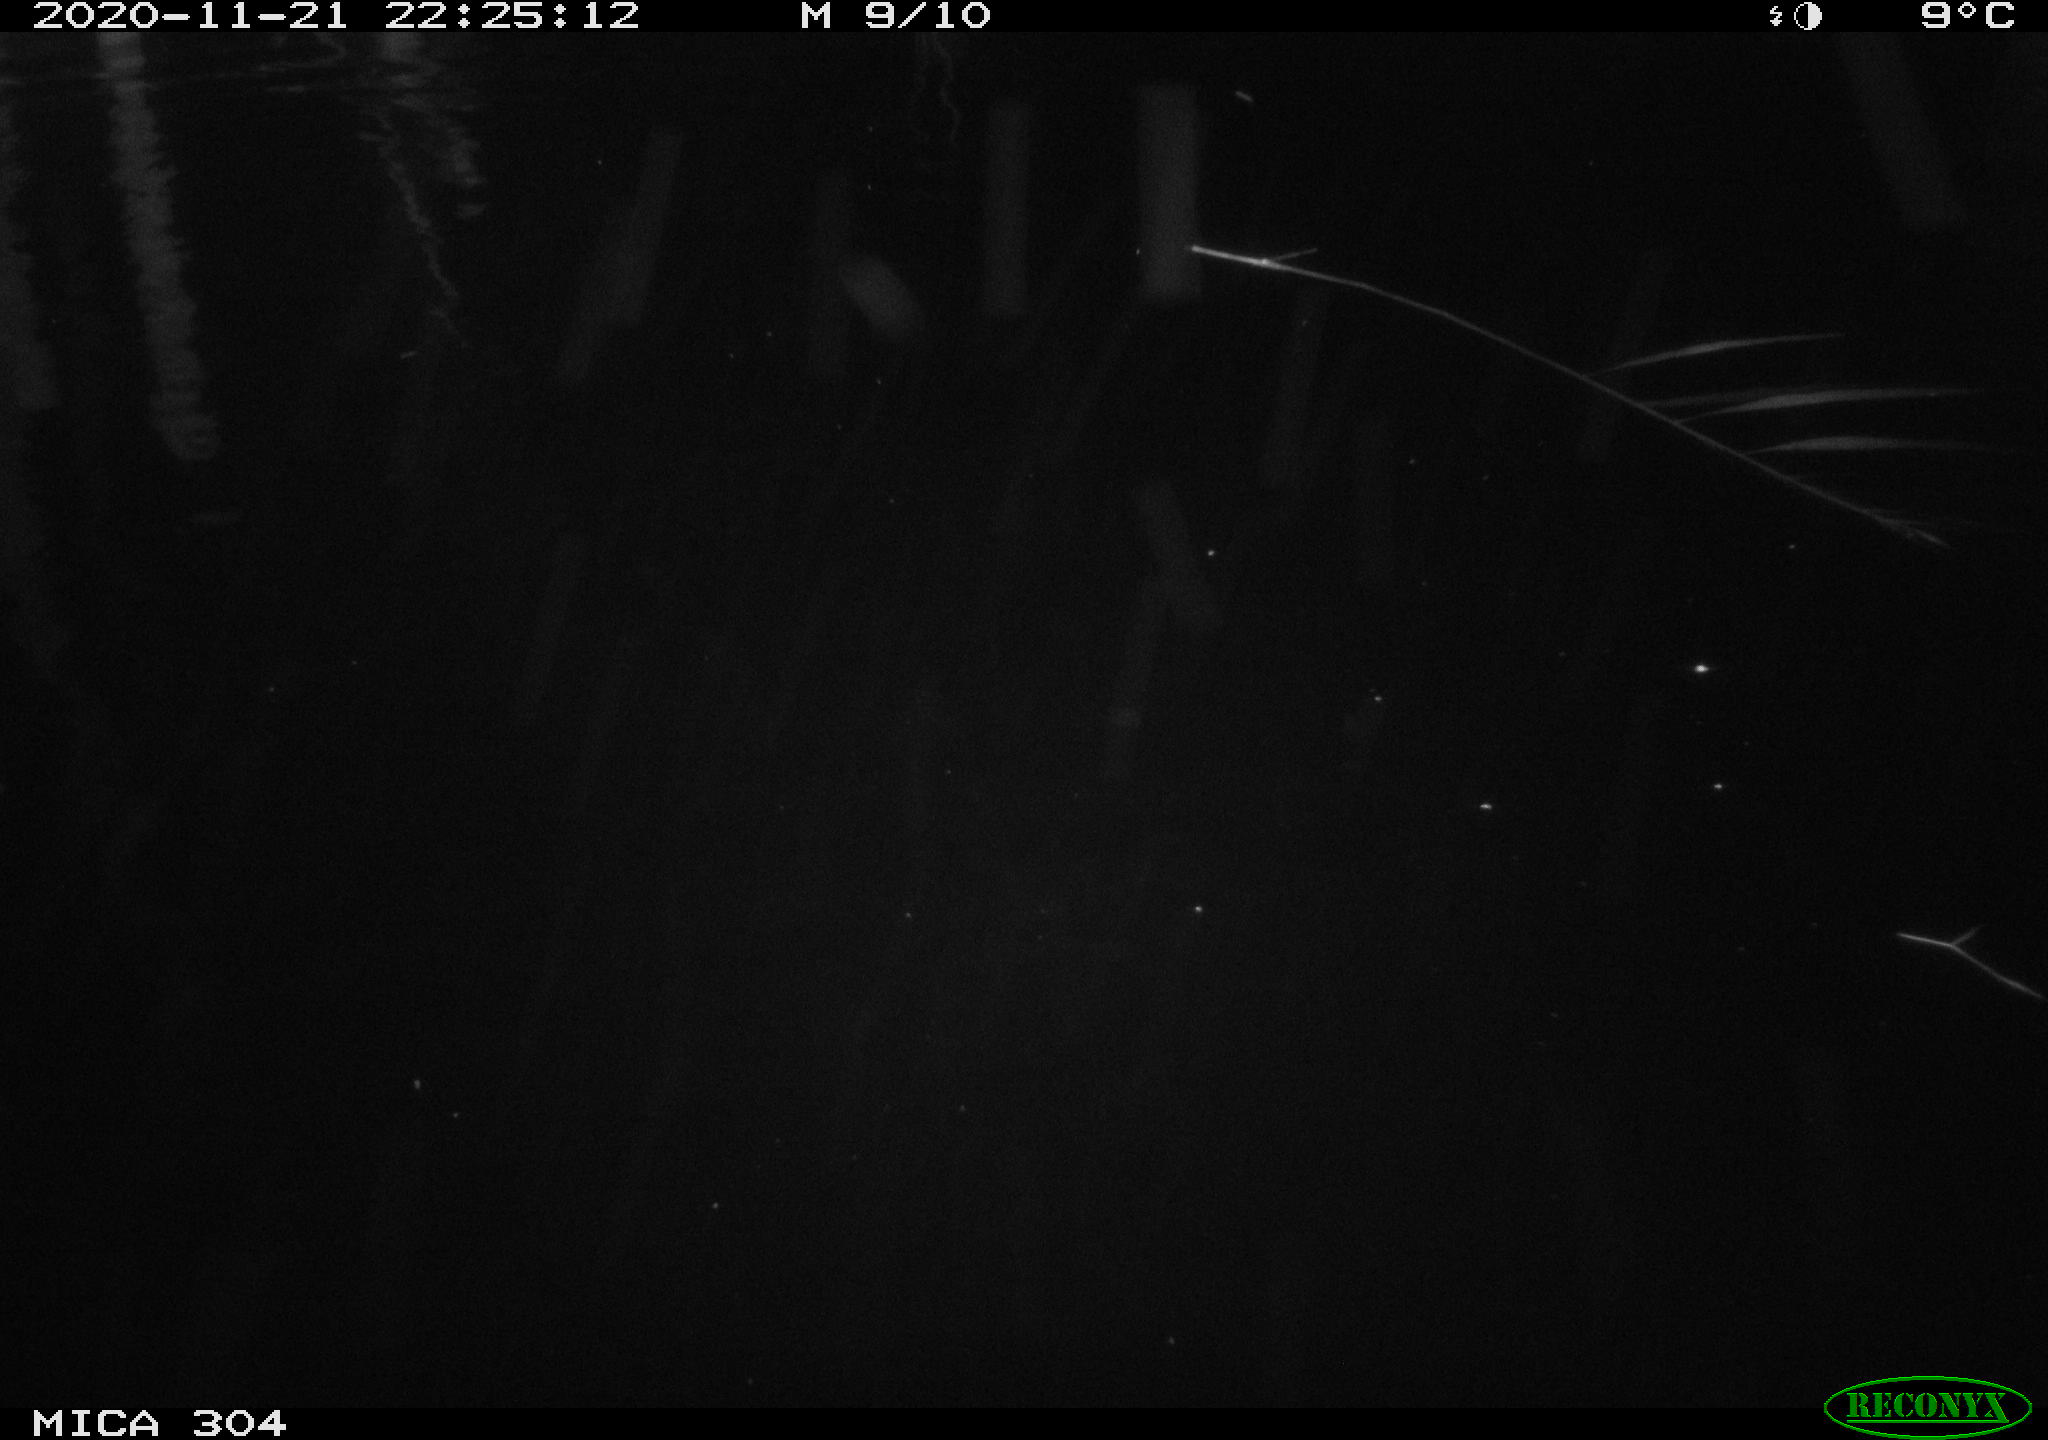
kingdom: Animalia
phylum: Chordata
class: Mammalia
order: Rodentia
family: Muridae
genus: Rattus
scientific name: Rattus norvegicus
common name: Brown rat
